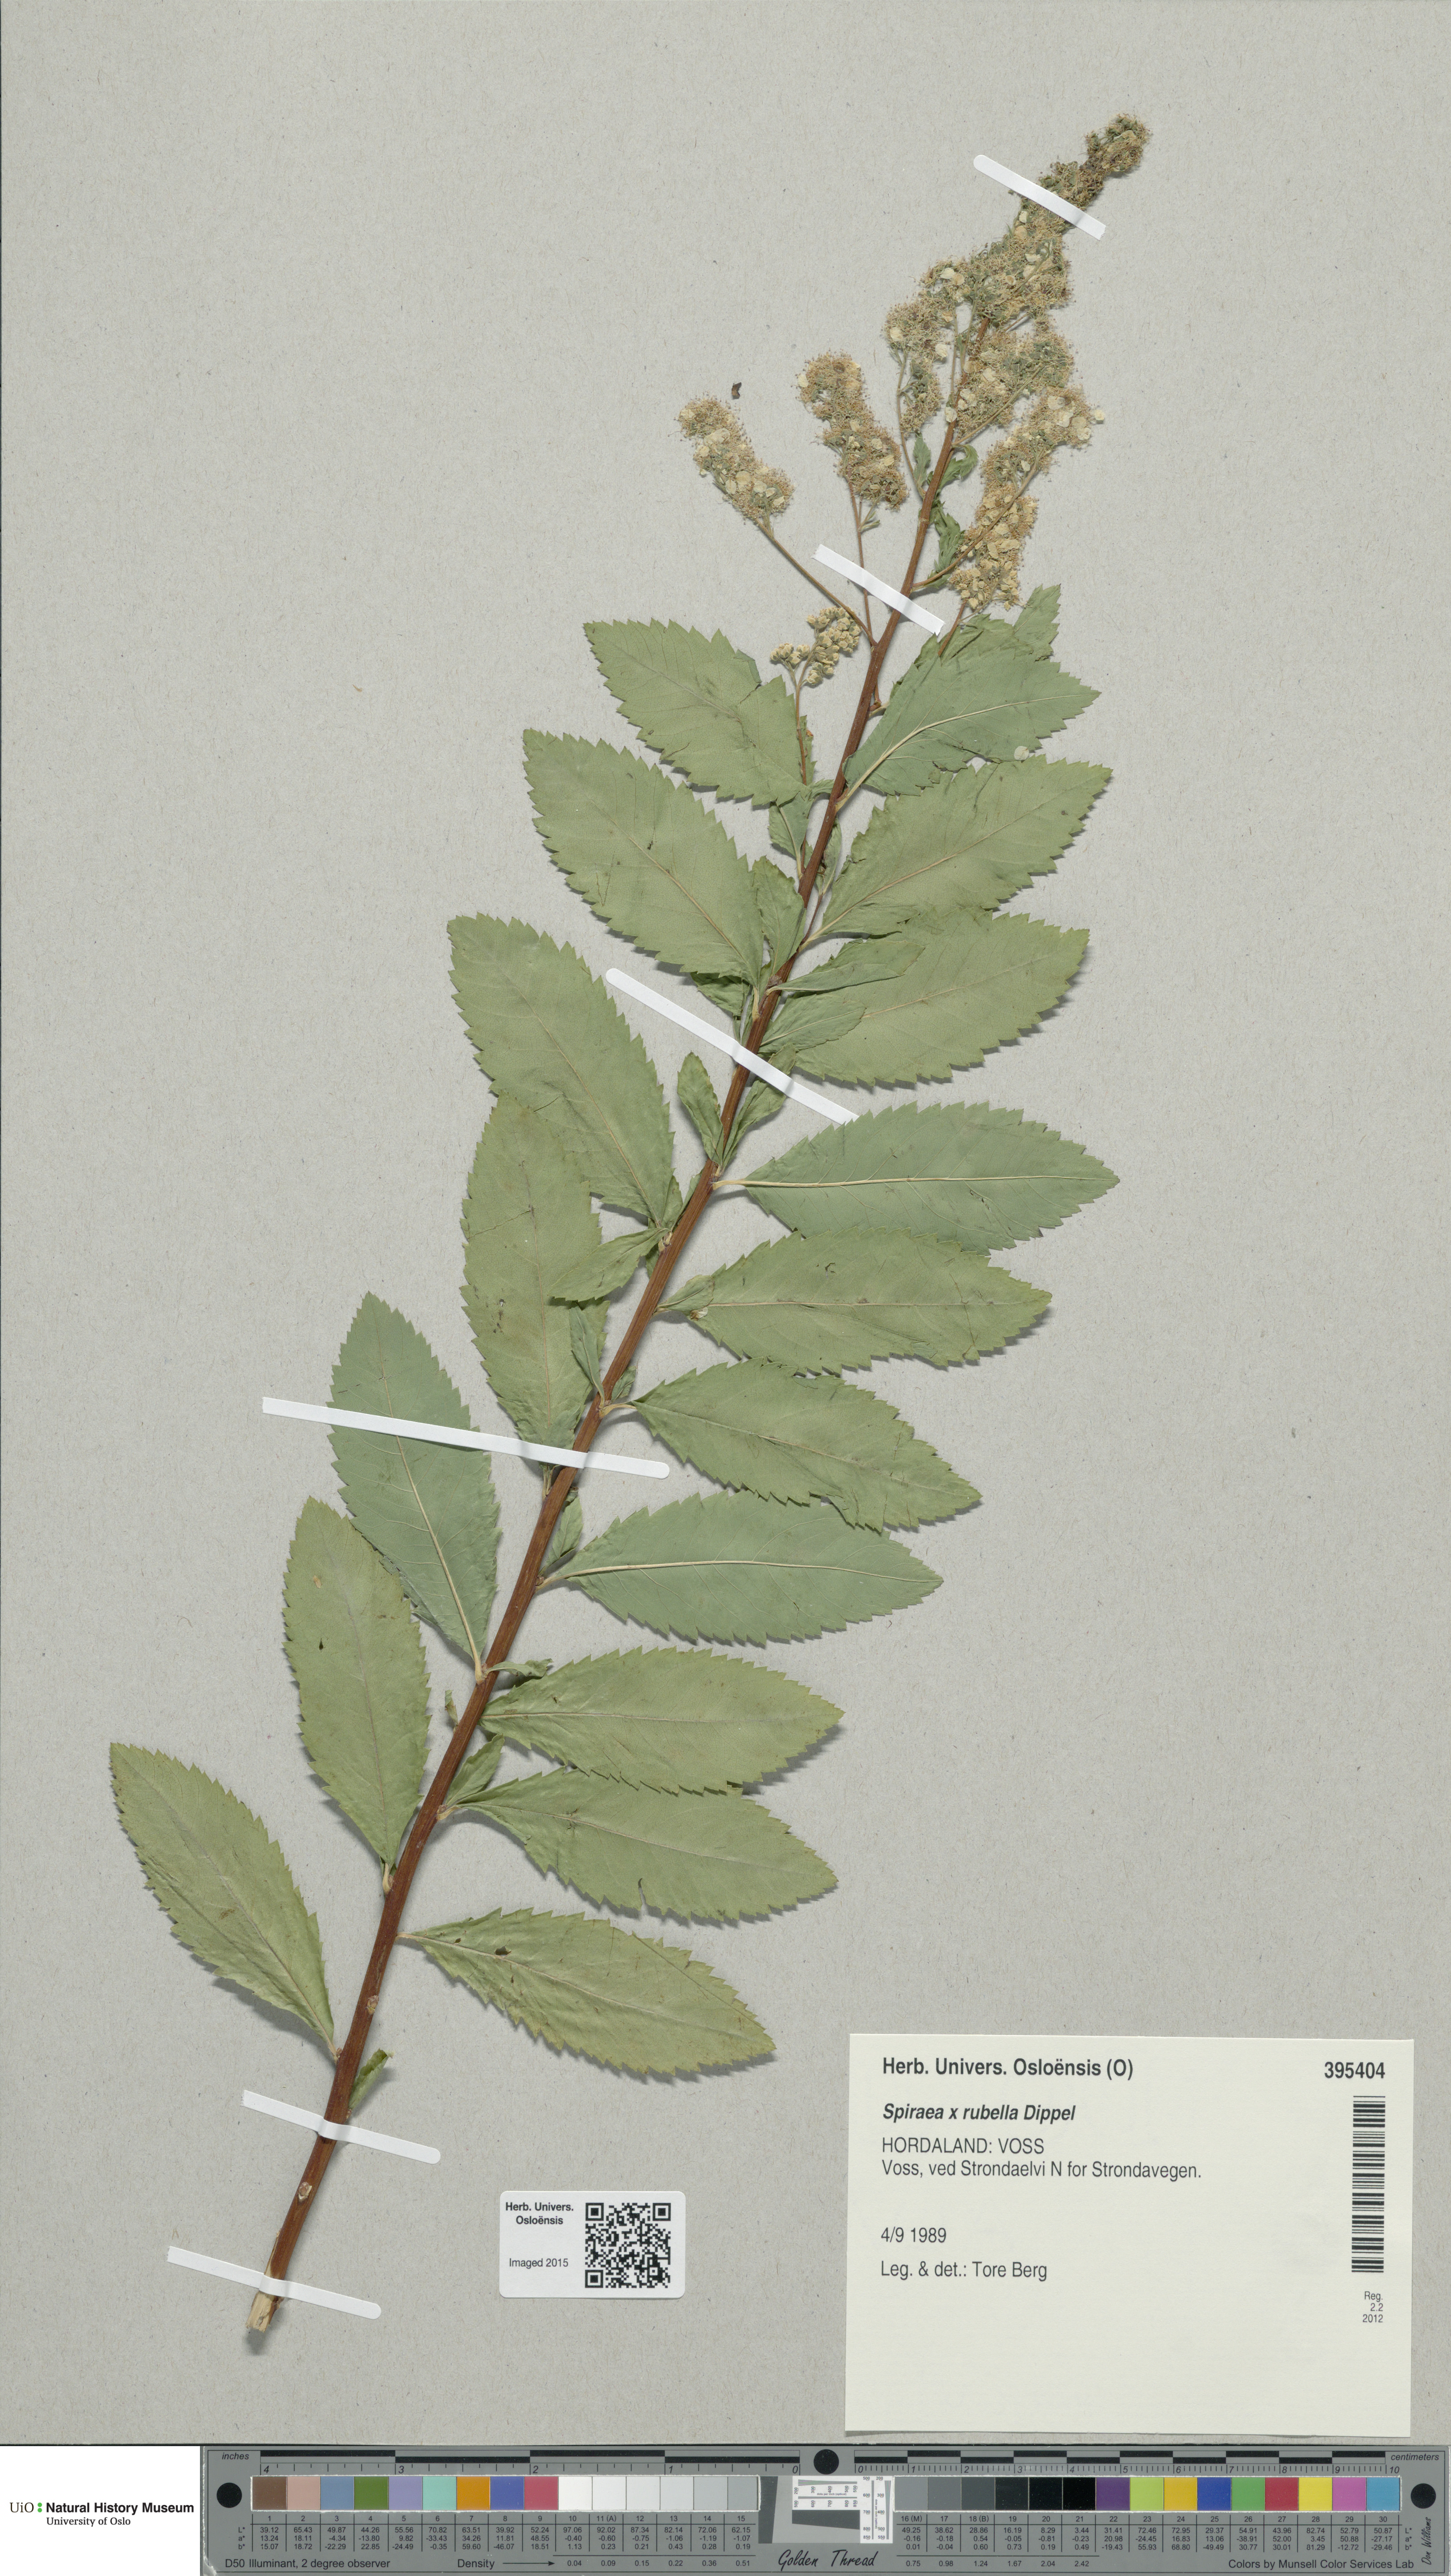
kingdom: Plantae
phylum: Tracheophyta
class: Magnoliopsida
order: Rosales
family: Rosaceae
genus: Spiraea
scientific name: Spiraea rosalba
